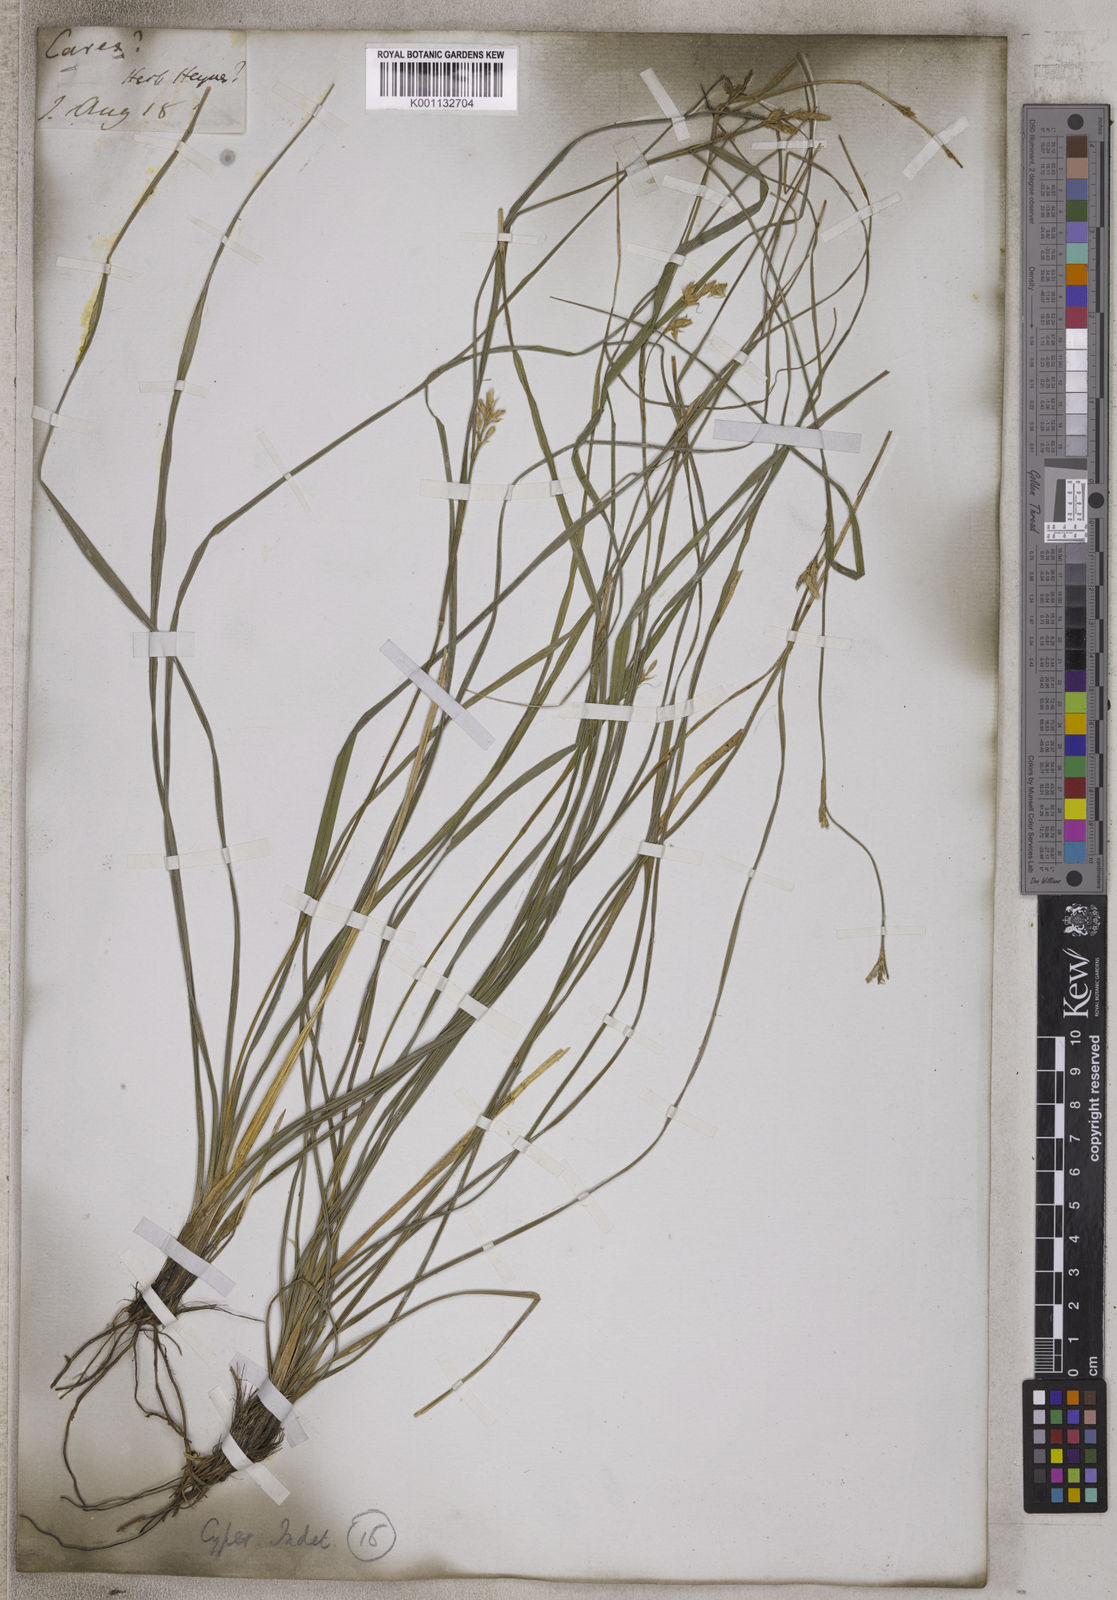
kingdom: Plantae
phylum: Tracheophyta
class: Liliopsida
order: Poales
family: Cyperaceae
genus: Carex
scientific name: Carex
